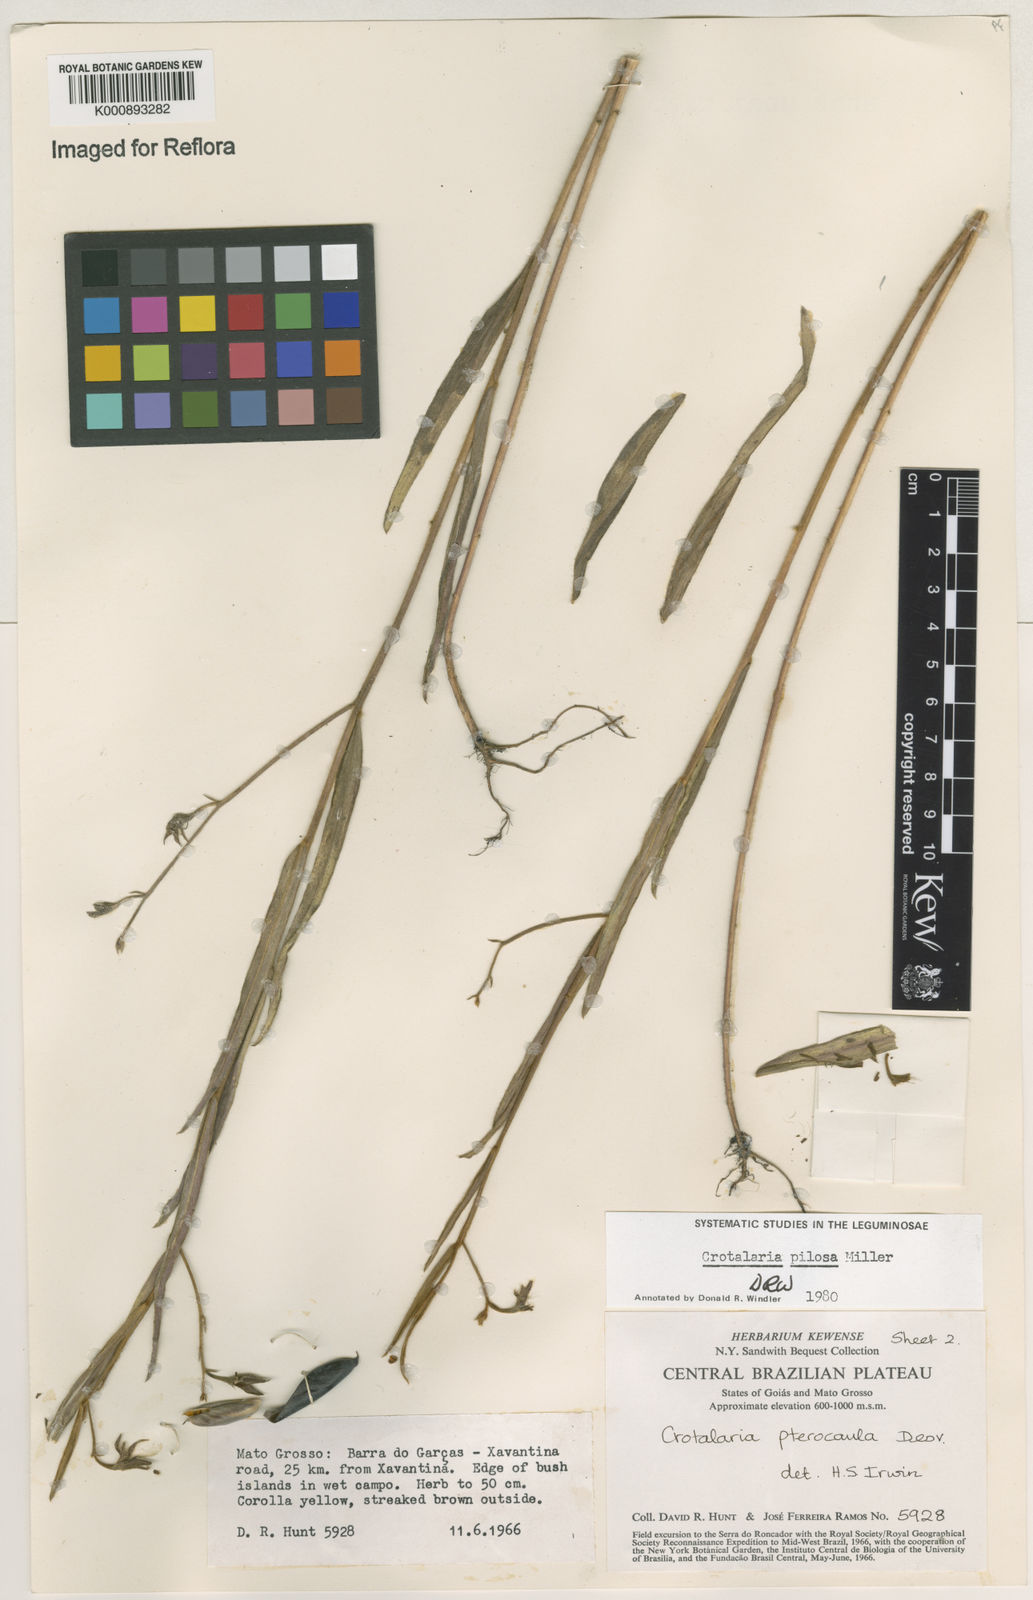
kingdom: Plantae
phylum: Tracheophyta
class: Magnoliopsida
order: Fabales
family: Fabaceae
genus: Crotalaria
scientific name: Crotalaria pilosa
